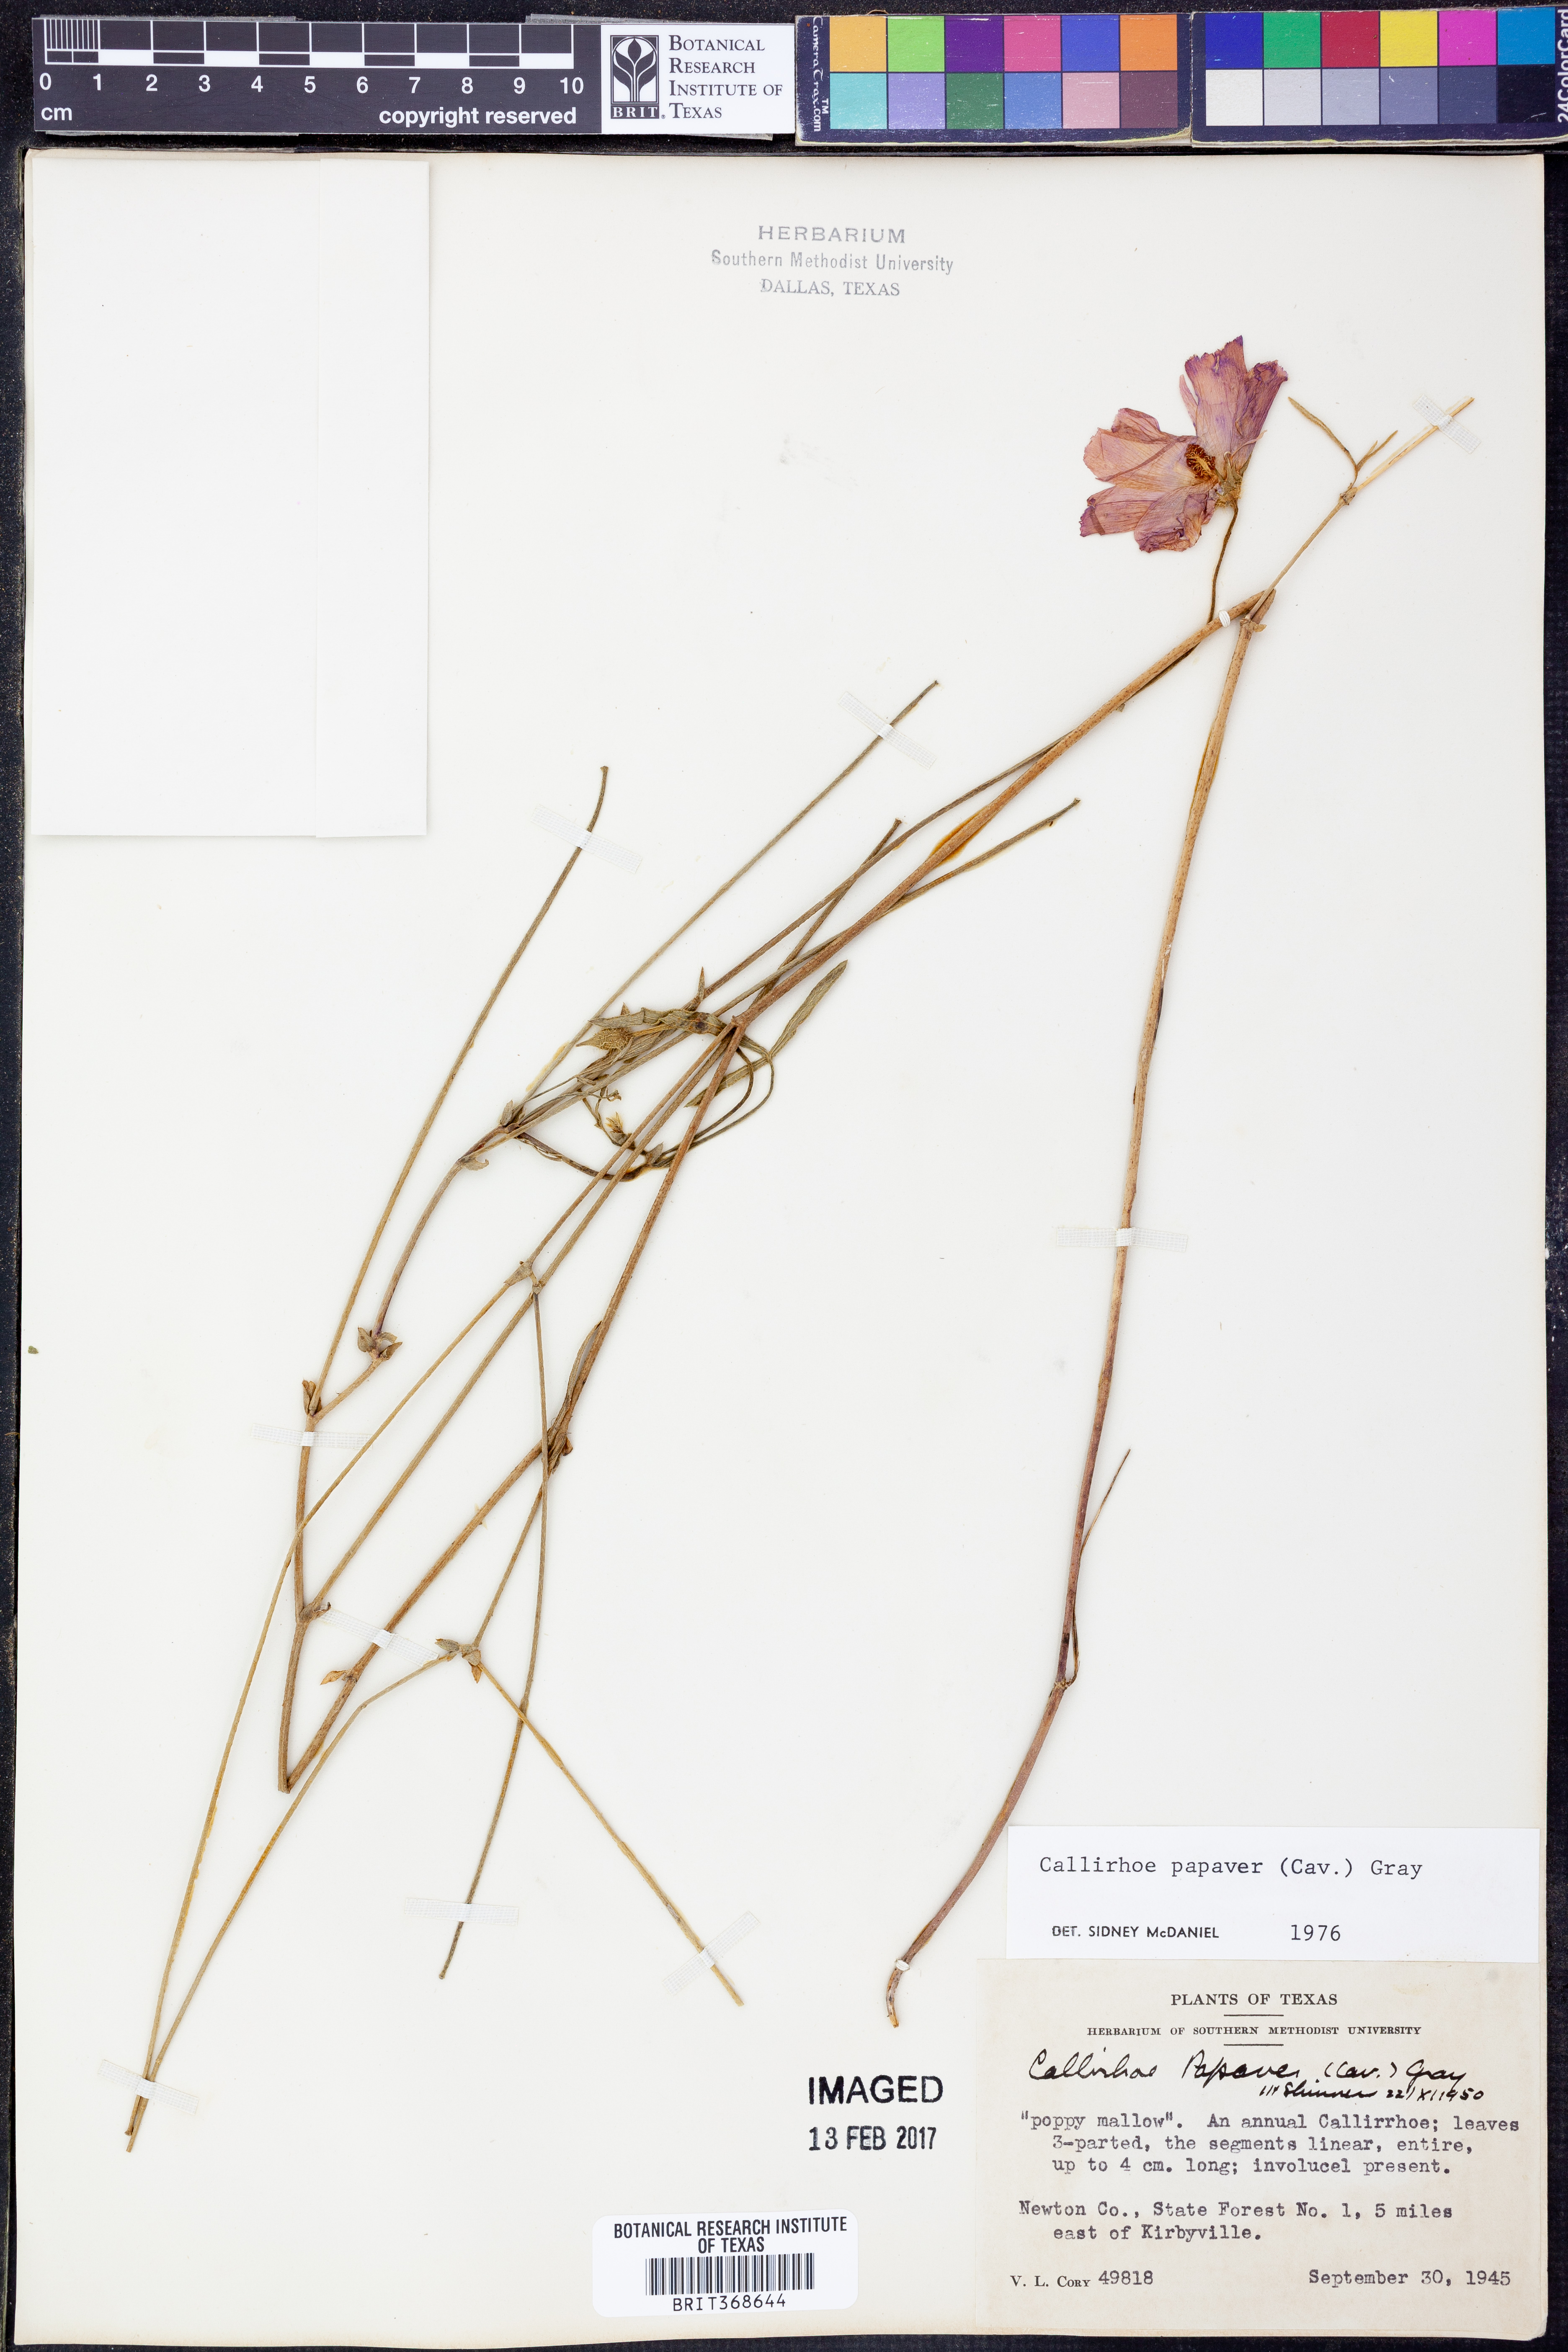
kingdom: Plantae
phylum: Tracheophyta
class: Magnoliopsida
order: Malvales
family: Malvaceae
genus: Callirhoe
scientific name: Callirhoe papaver
